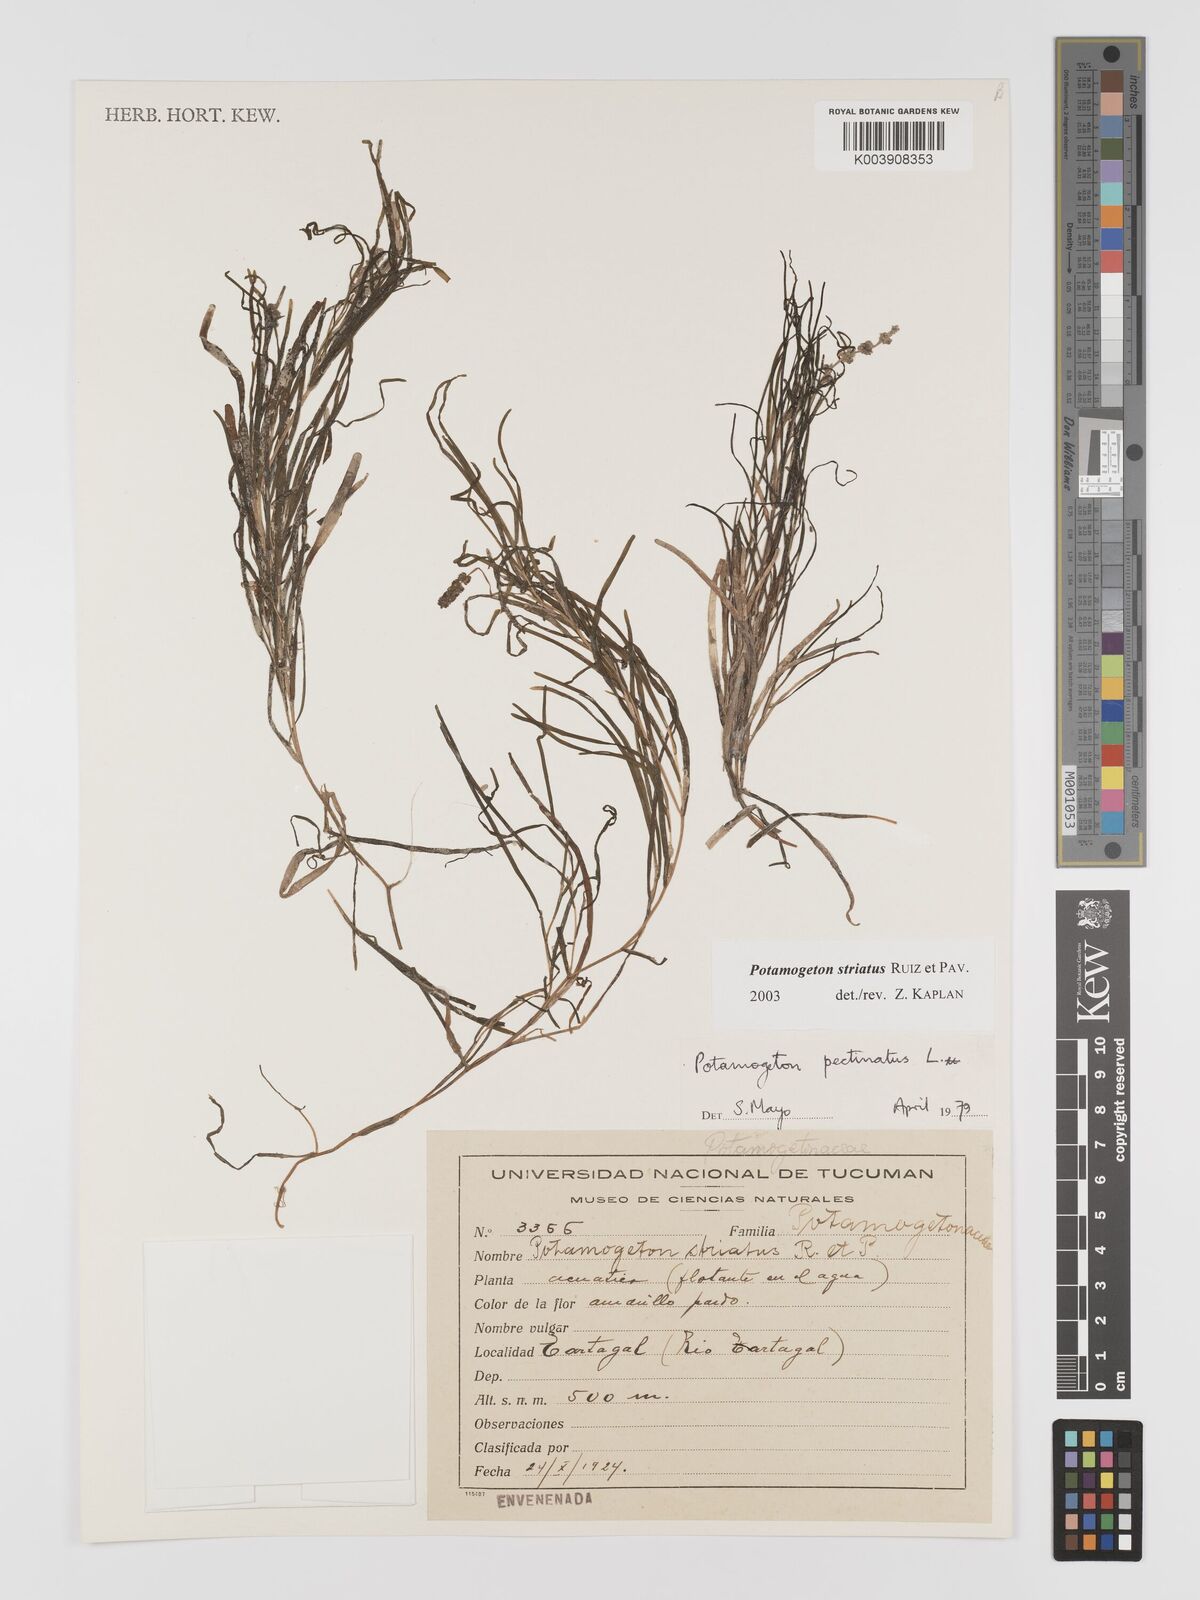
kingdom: Plantae
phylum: Tracheophyta
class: Liliopsida
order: Alismatales
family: Potamogetonaceae
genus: Stuckenia
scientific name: Stuckenia striata
